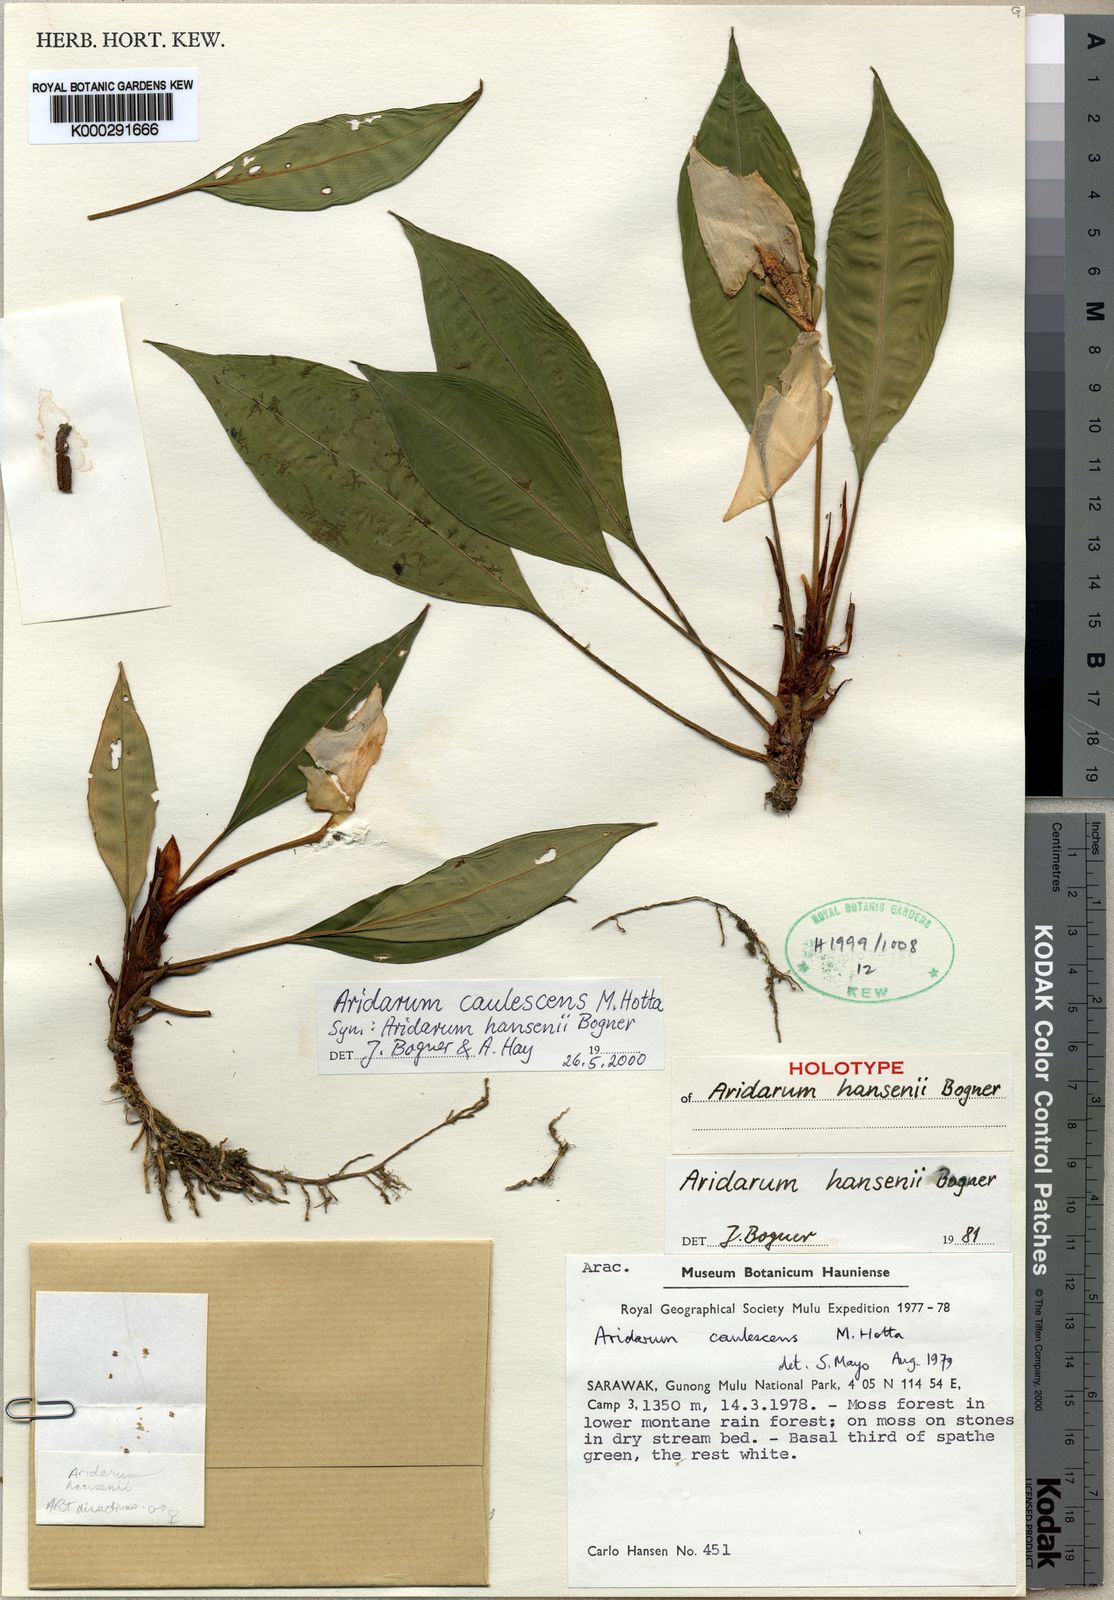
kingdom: Plantae
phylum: Tracheophyta
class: Liliopsida
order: Alismatales
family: Araceae
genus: Burttianthus
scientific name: Burttianthus caulescens
